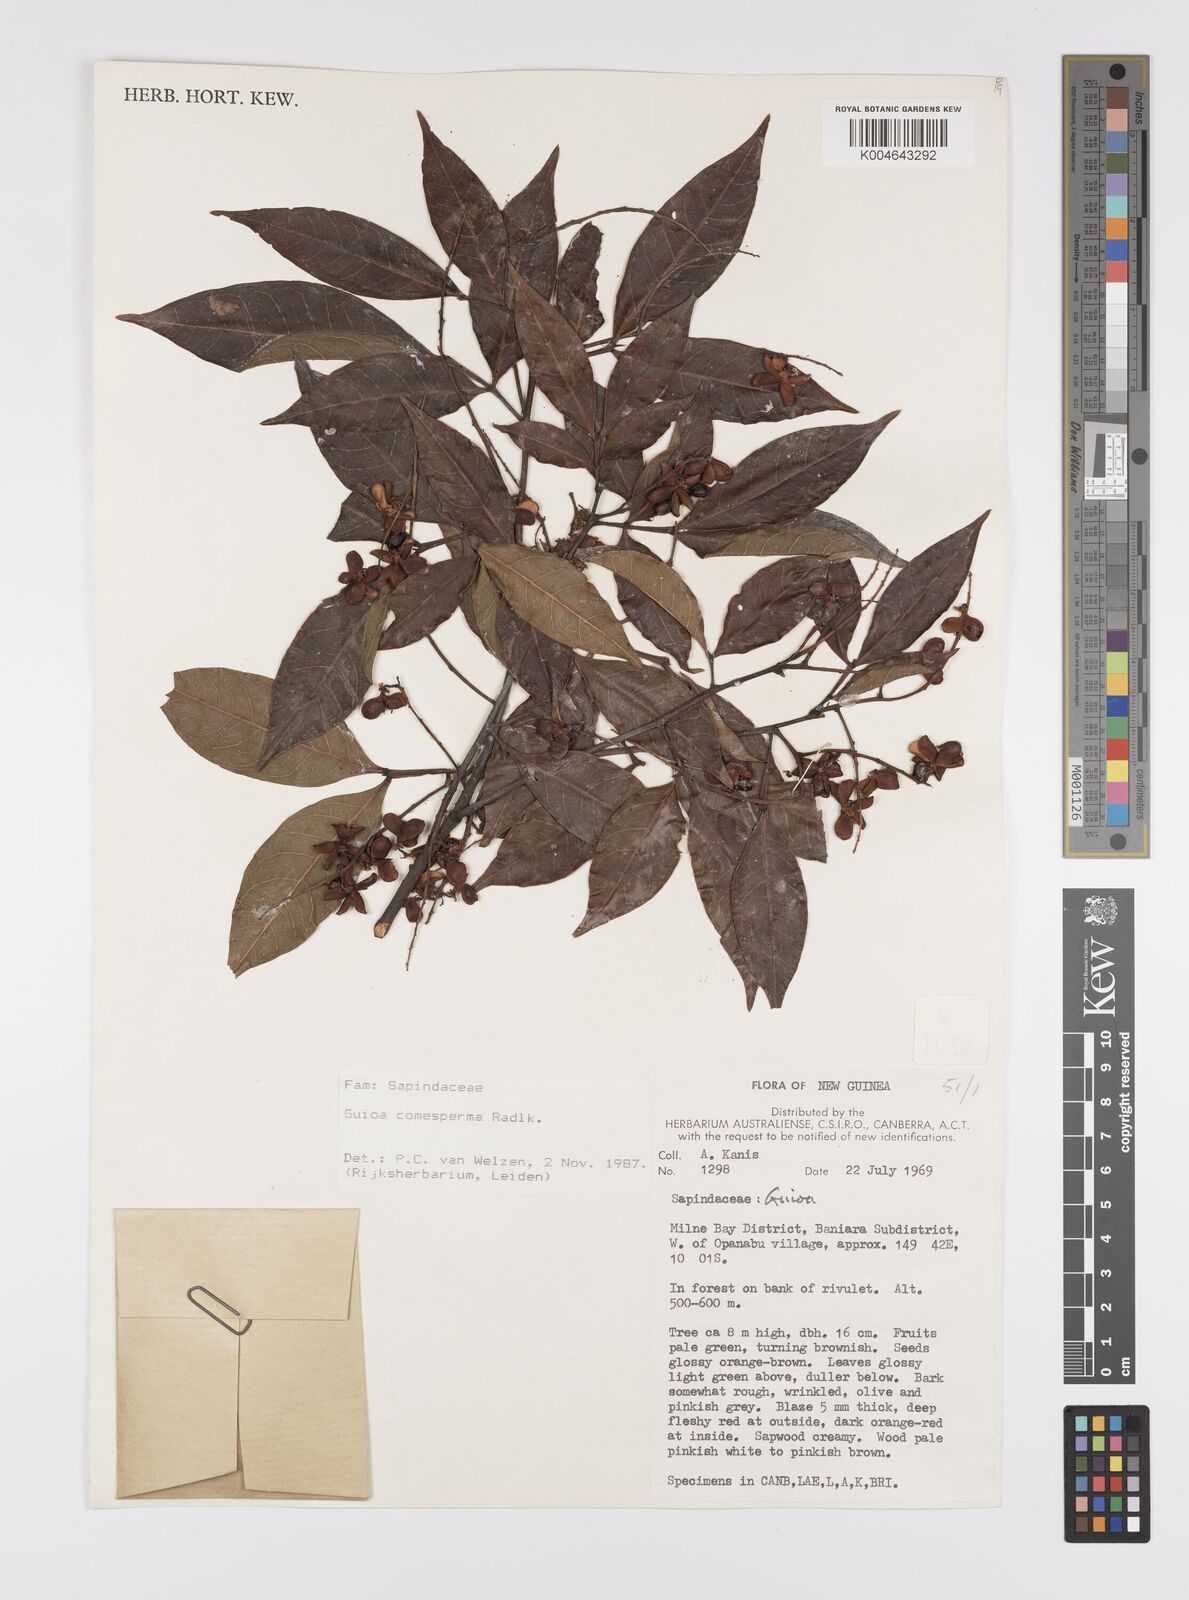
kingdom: Plantae
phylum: Tracheophyta
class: Magnoliopsida
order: Sapindales
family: Sapindaceae
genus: Guioa
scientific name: Guioa comesperma
